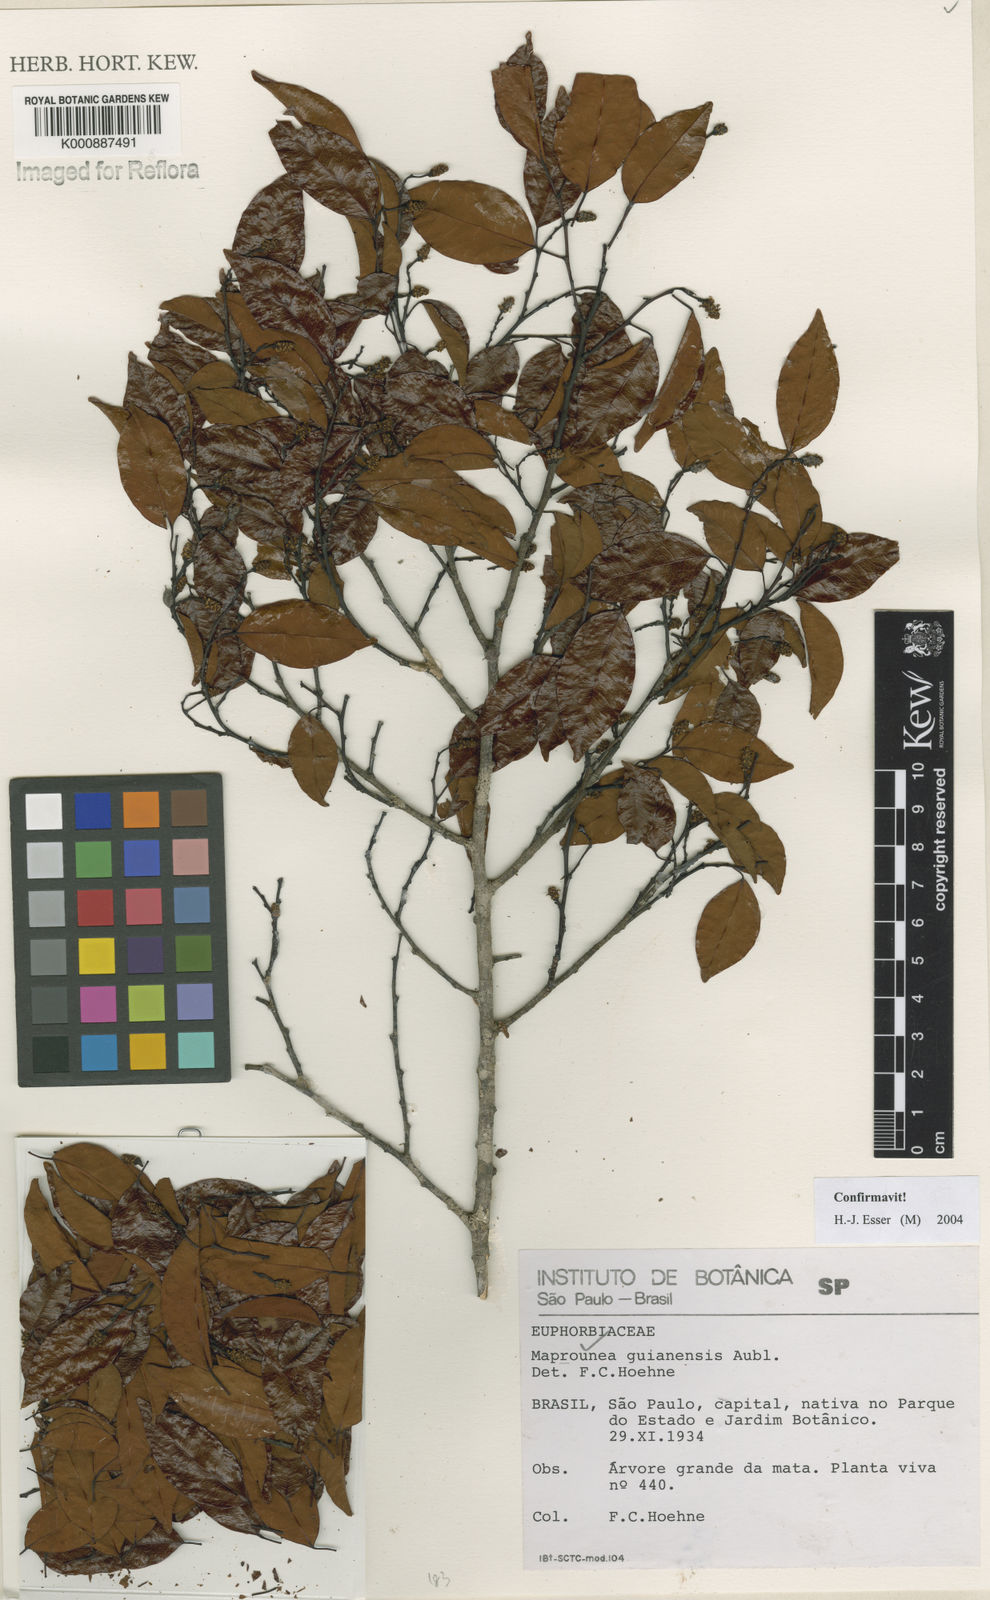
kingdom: Plantae
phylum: Tracheophyta
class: Magnoliopsida
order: Malpighiales
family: Euphorbiaceae
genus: Maprounea
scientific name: Maprounea guianensis
